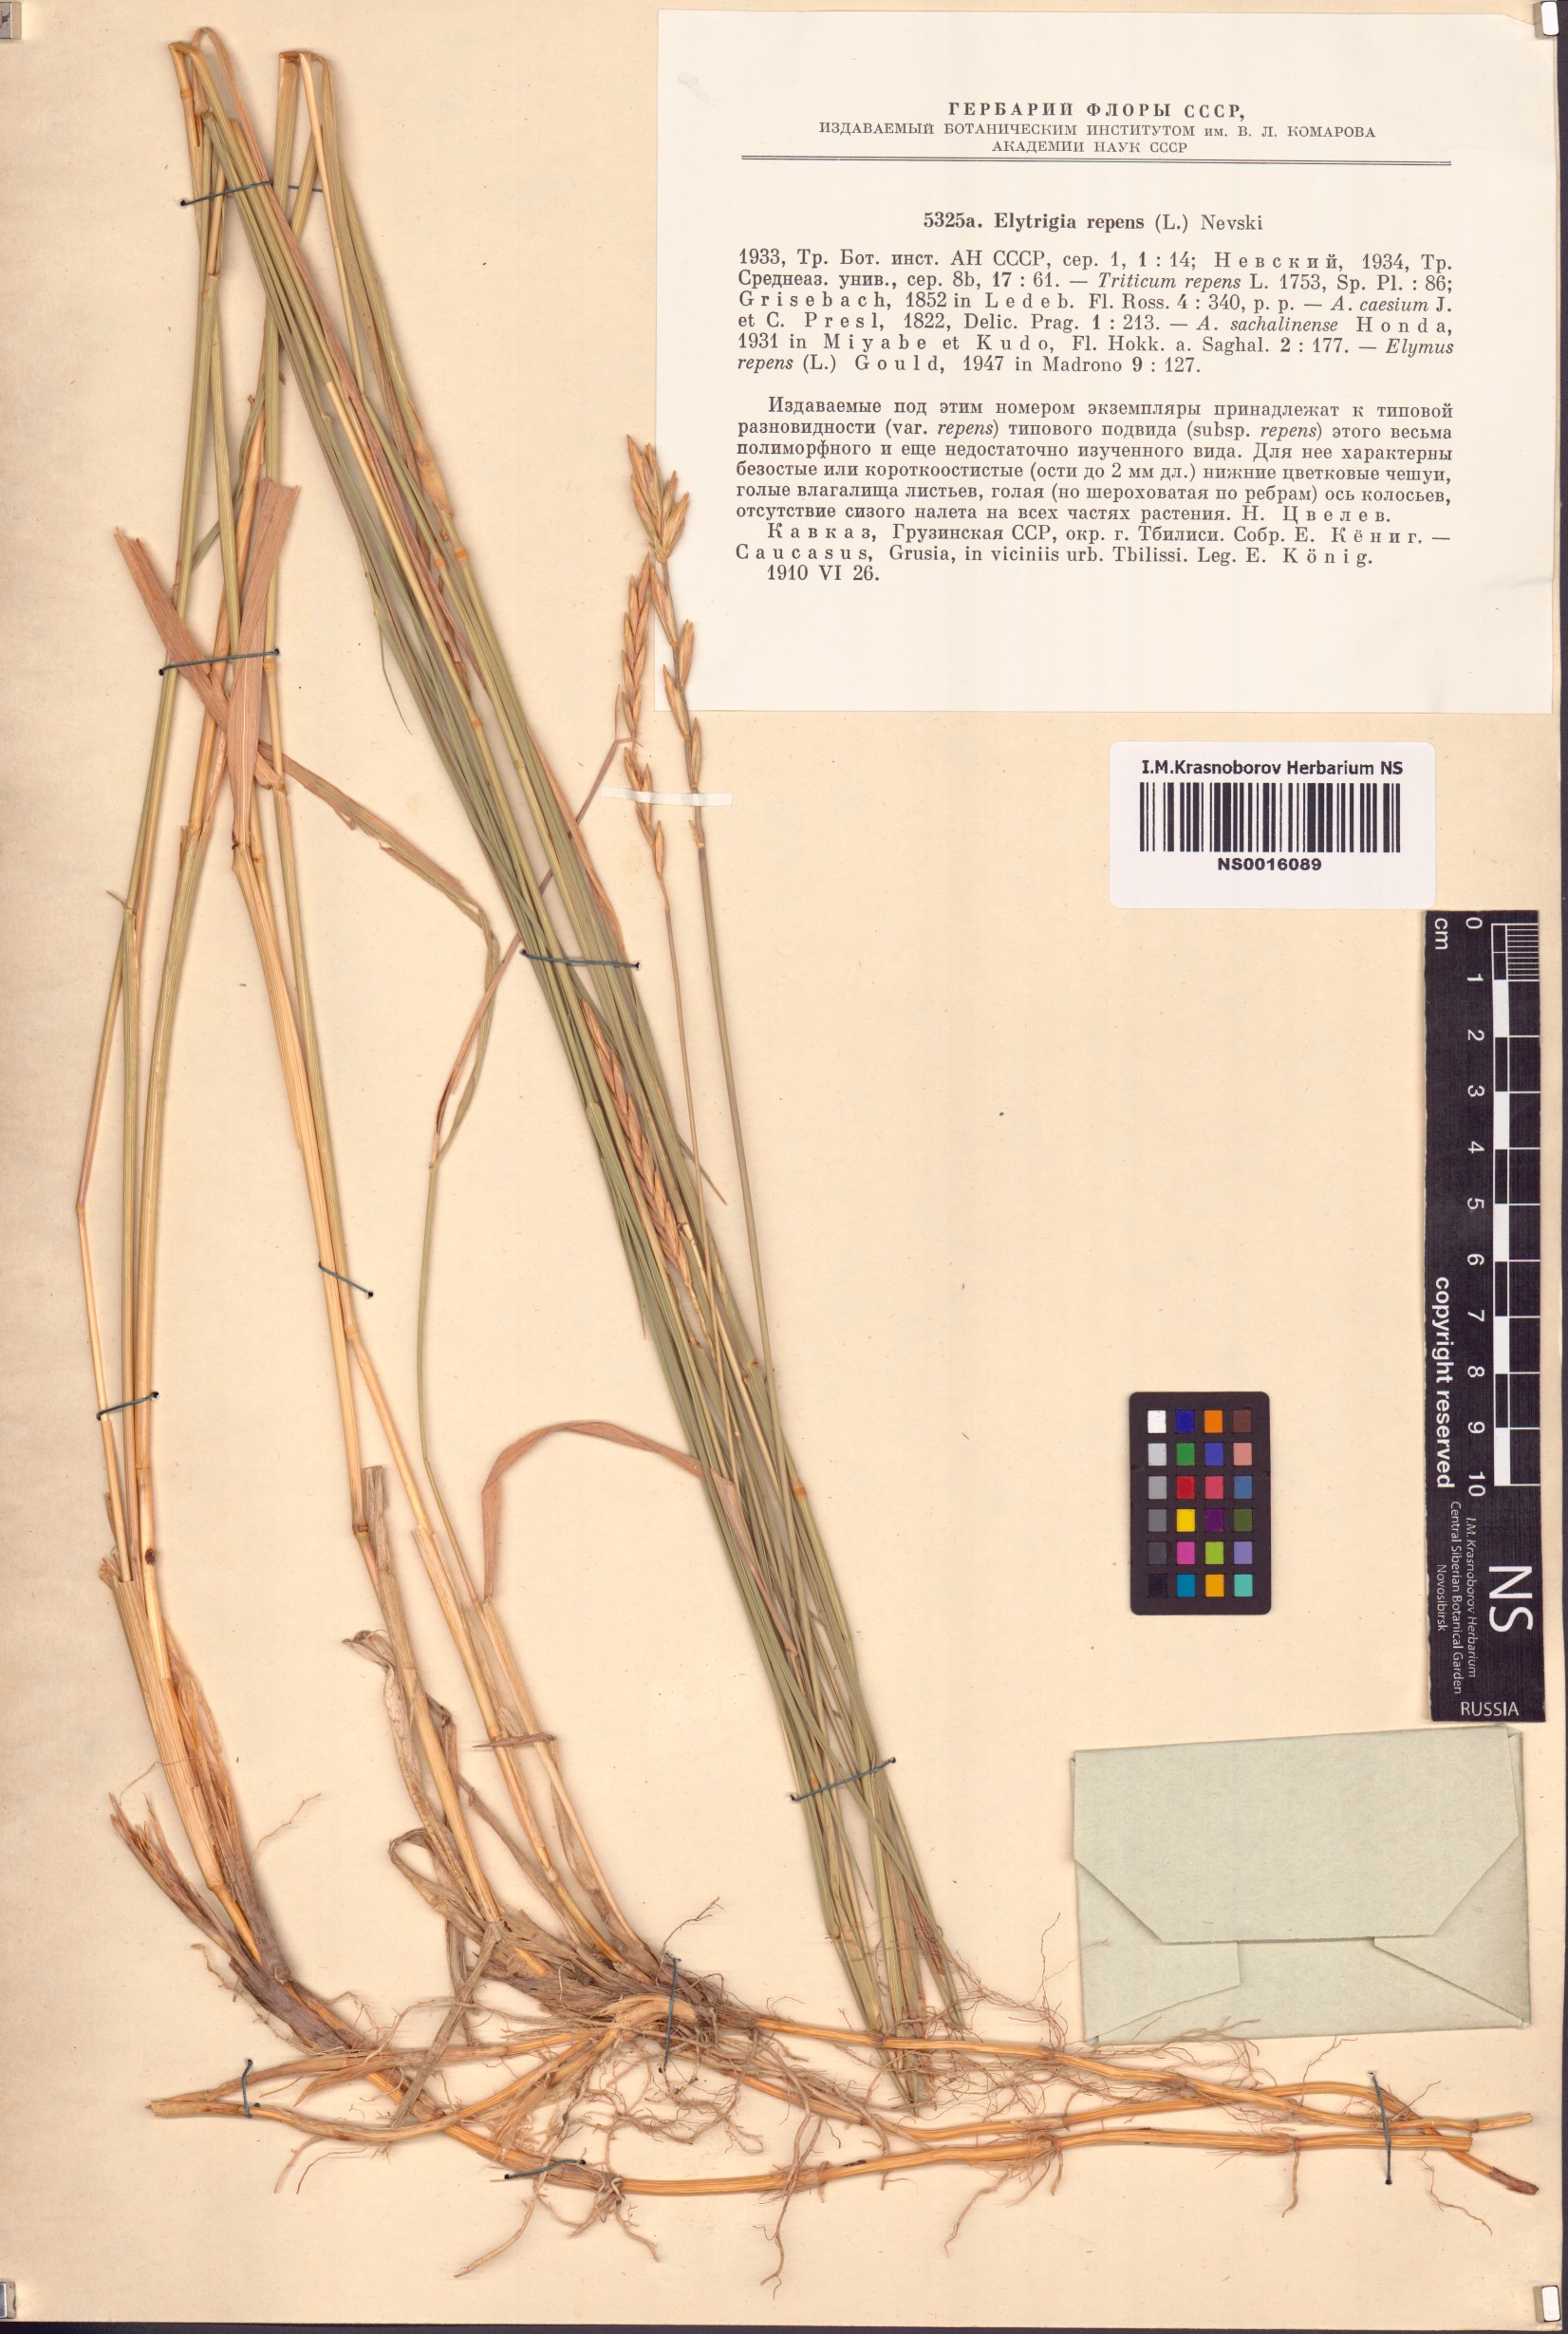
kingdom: Plantae
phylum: Tracheophyta
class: Liliopsida
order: Poales
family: Poaceae
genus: Elymus
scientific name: Elymus repens
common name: Quackgrass
